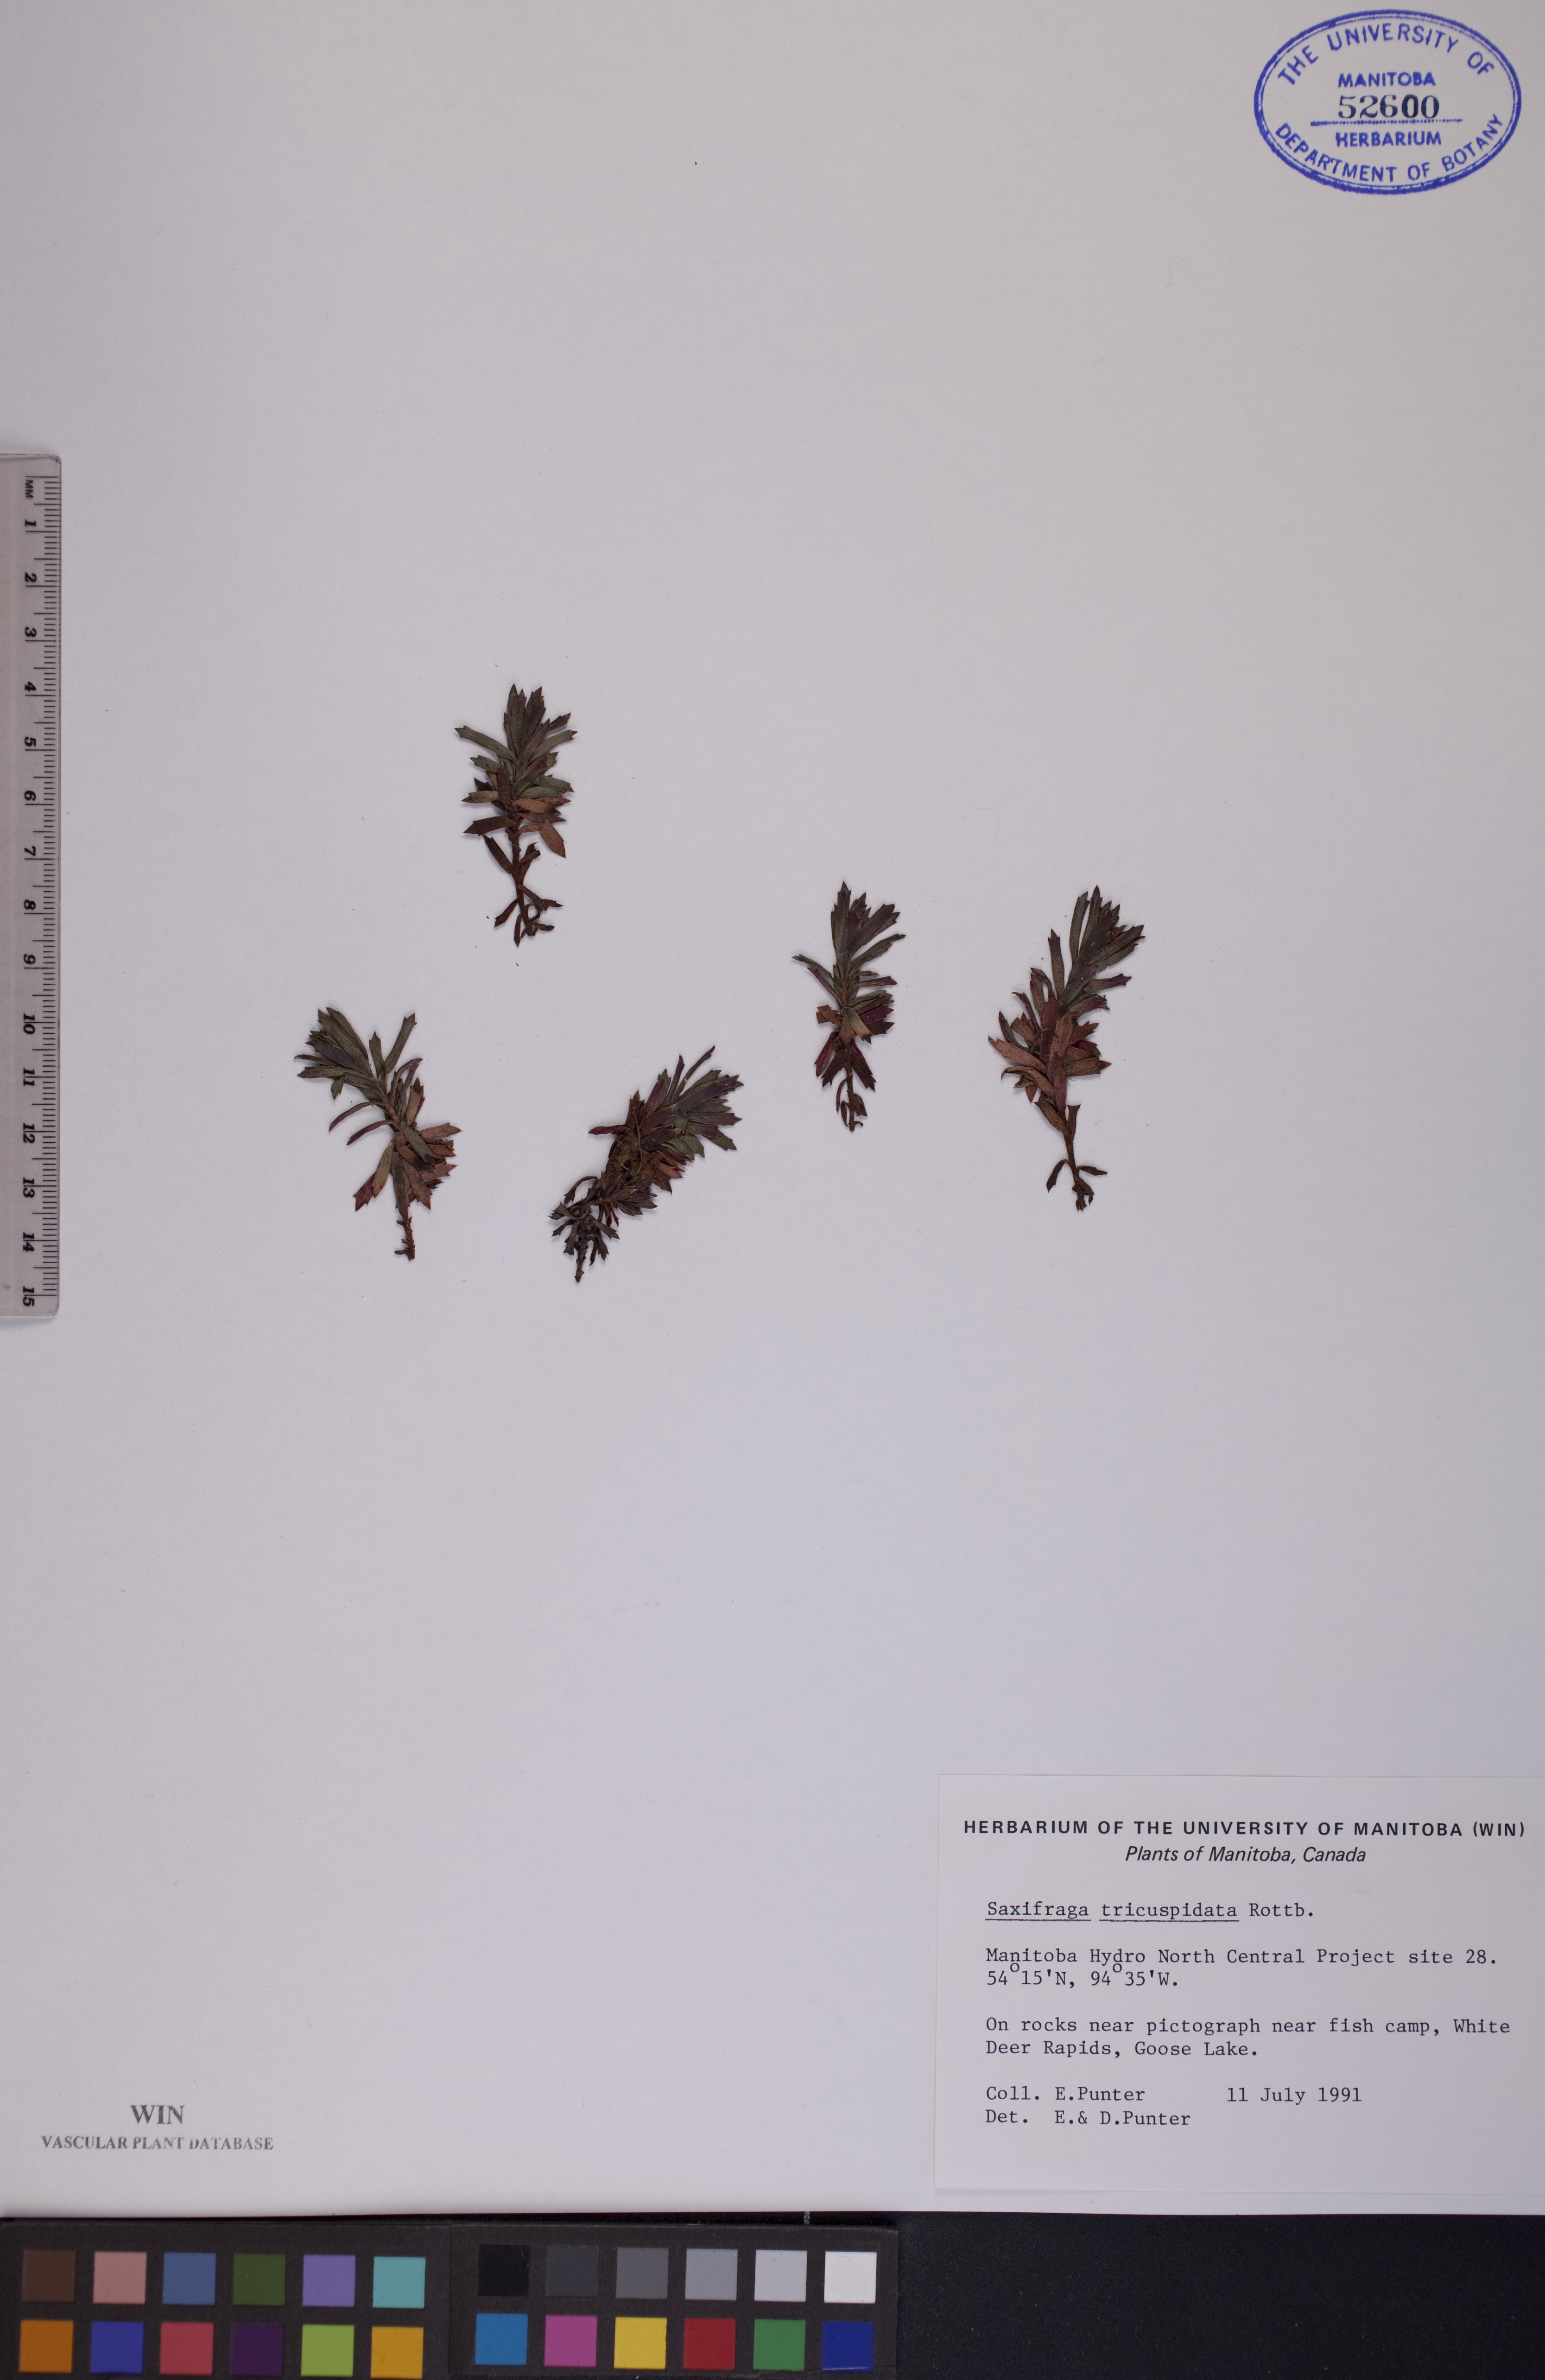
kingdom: Plantae
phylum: Tracheophyta
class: Magnoliopsida
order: Saxifragales
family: Saxifragaceae
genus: Saxifraga
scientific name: Saxifraga tricuspidata
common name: Prickly saxifrage
